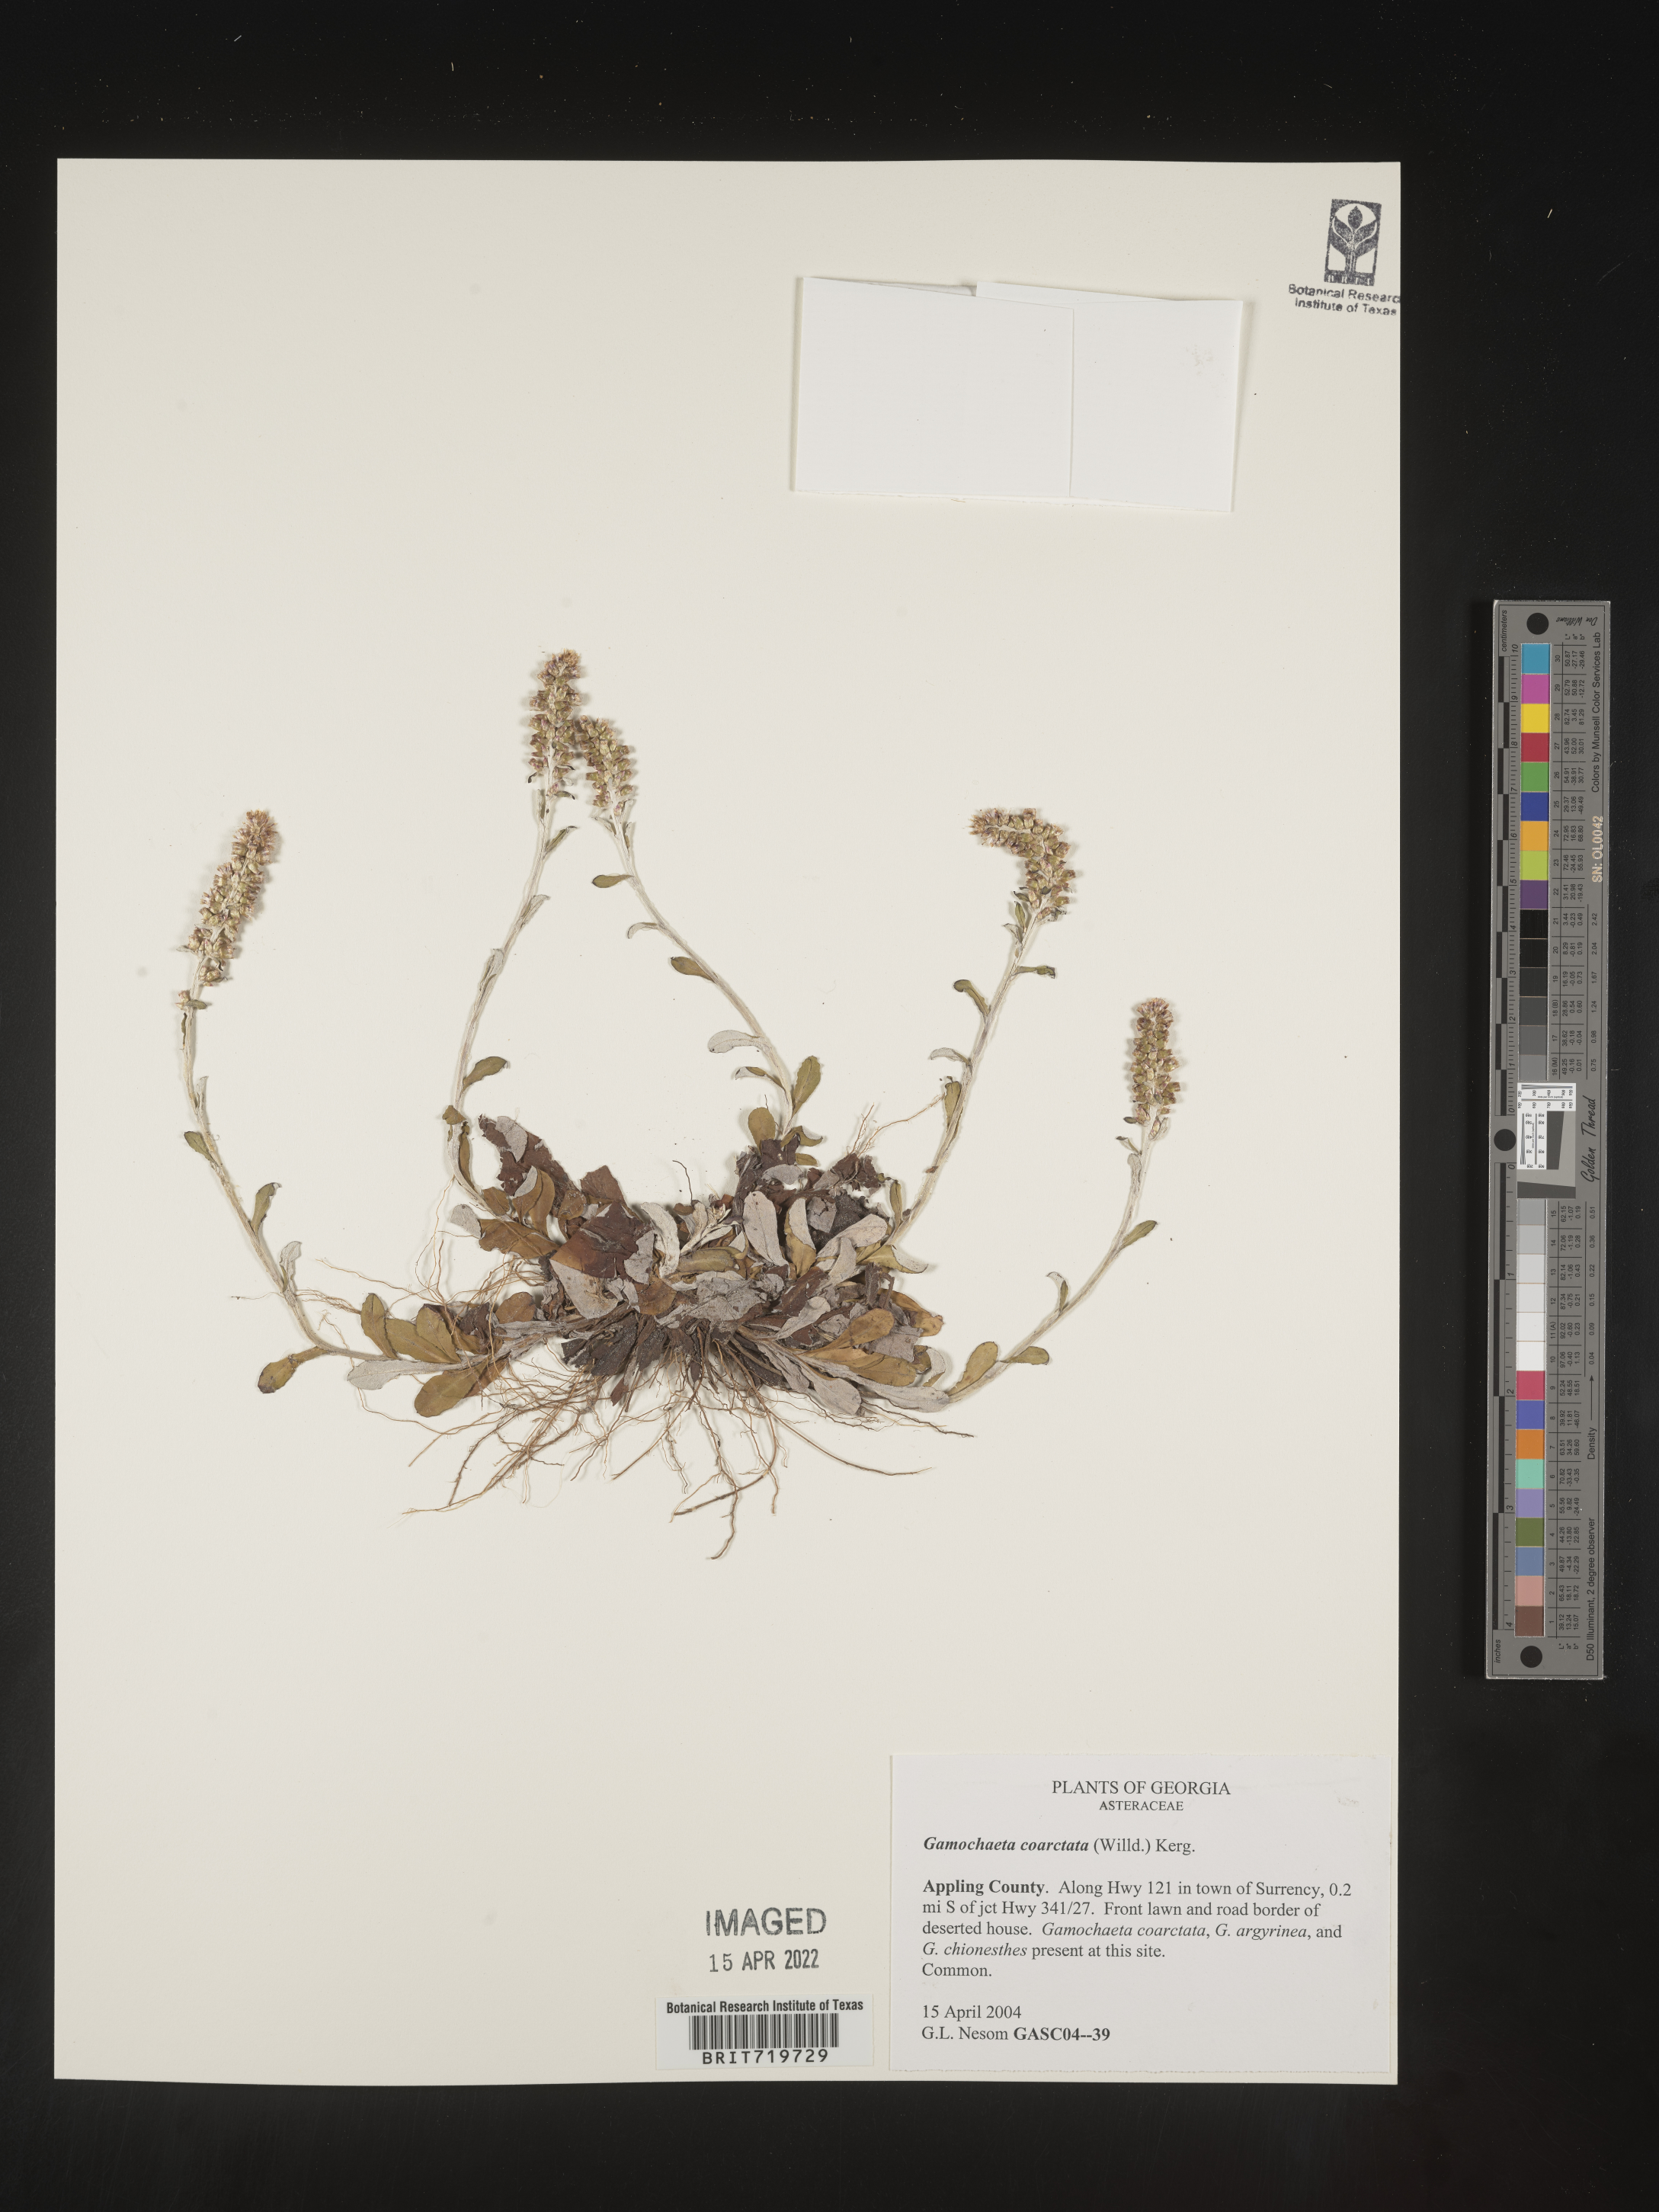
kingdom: Plantae
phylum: Tracheophyta
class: Magnoliopsida
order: Asterales
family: Asteraceae
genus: Gamochaeta
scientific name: Gamochaeta americana
